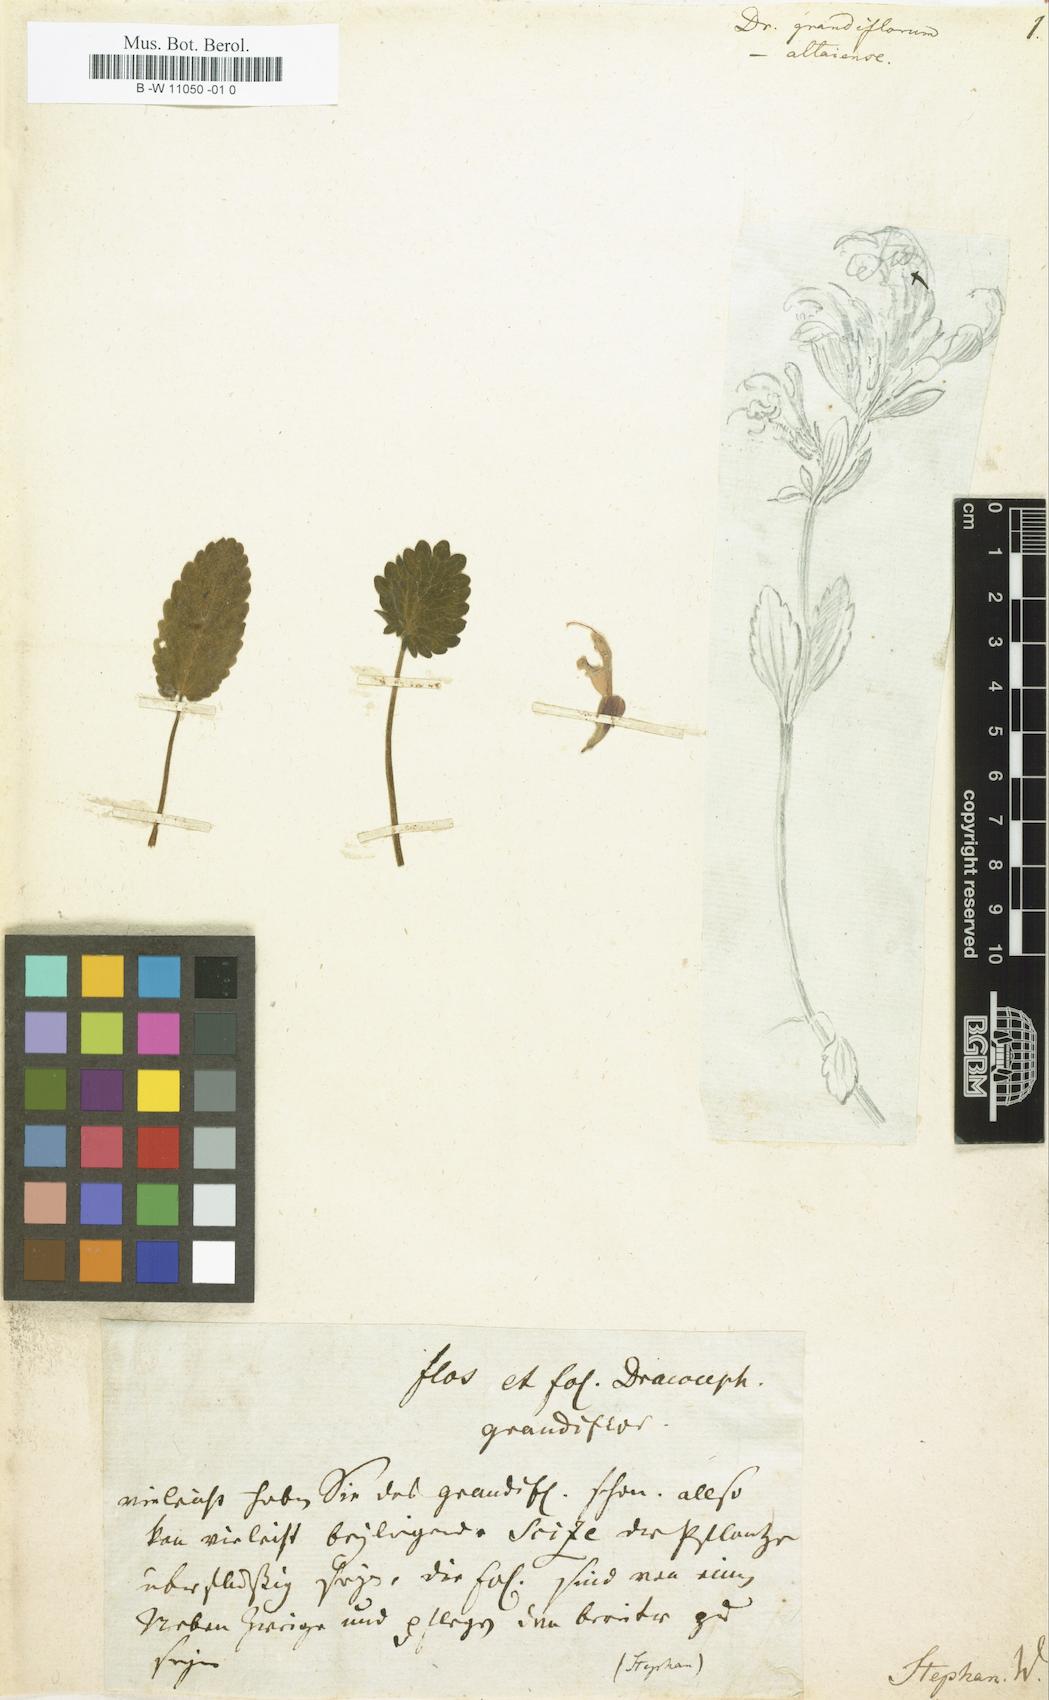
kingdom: Plantae
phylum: Tracheophyta
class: Magnoliopsida
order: Lamiales
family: Lamiaceae
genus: Dracocephalum
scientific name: Dracocephalum grandiflorum
